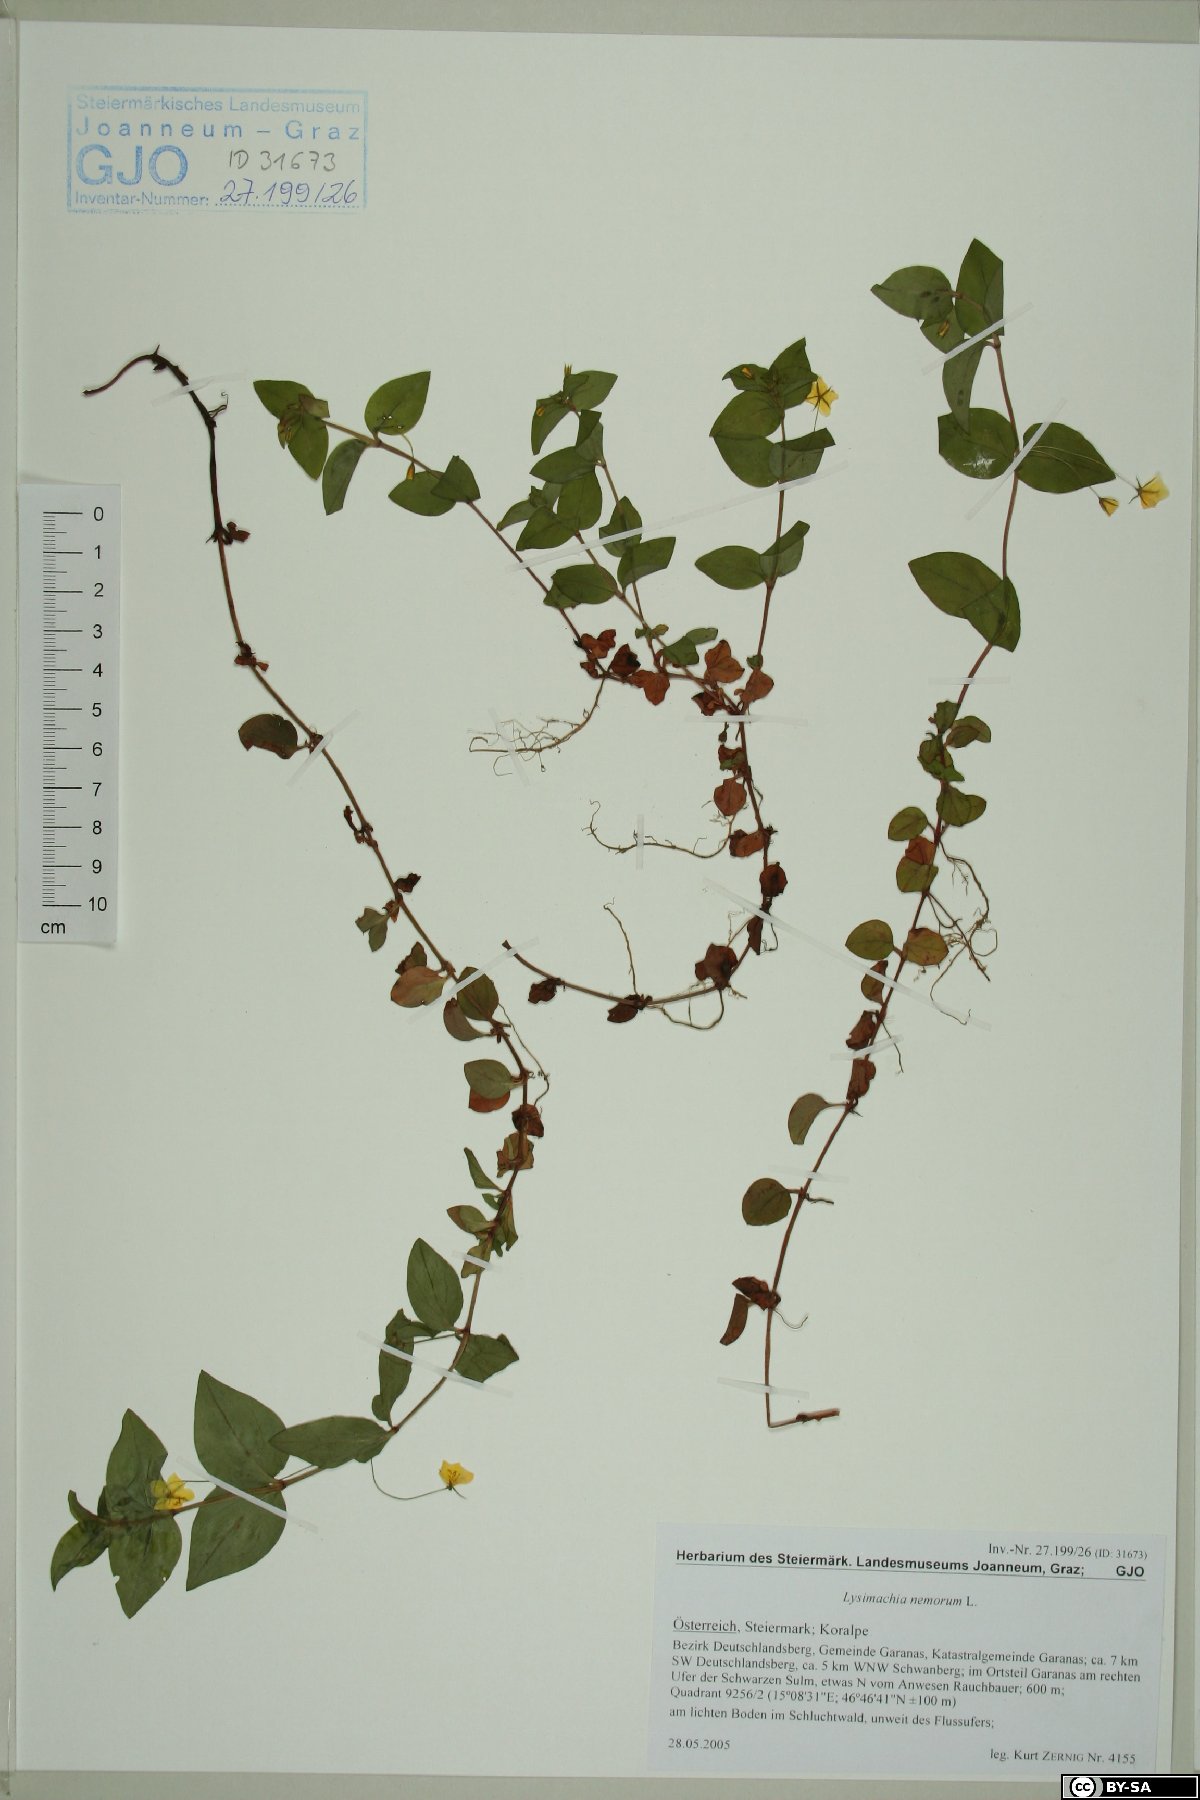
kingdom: Plantae
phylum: Tracheophyta
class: Magnoliopsida
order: Ericales
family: Primulaceae
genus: Lysimachia
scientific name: Lysimachia nemorum
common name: Yellow pimpernel
